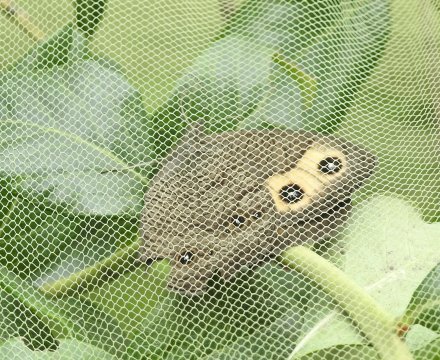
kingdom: Animalia
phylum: Arthropoda
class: Insecta
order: Lepidoptera
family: Nymphalidae
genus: Cercyonis
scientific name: Cercyonis pegala
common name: Common Wood-Nymph
